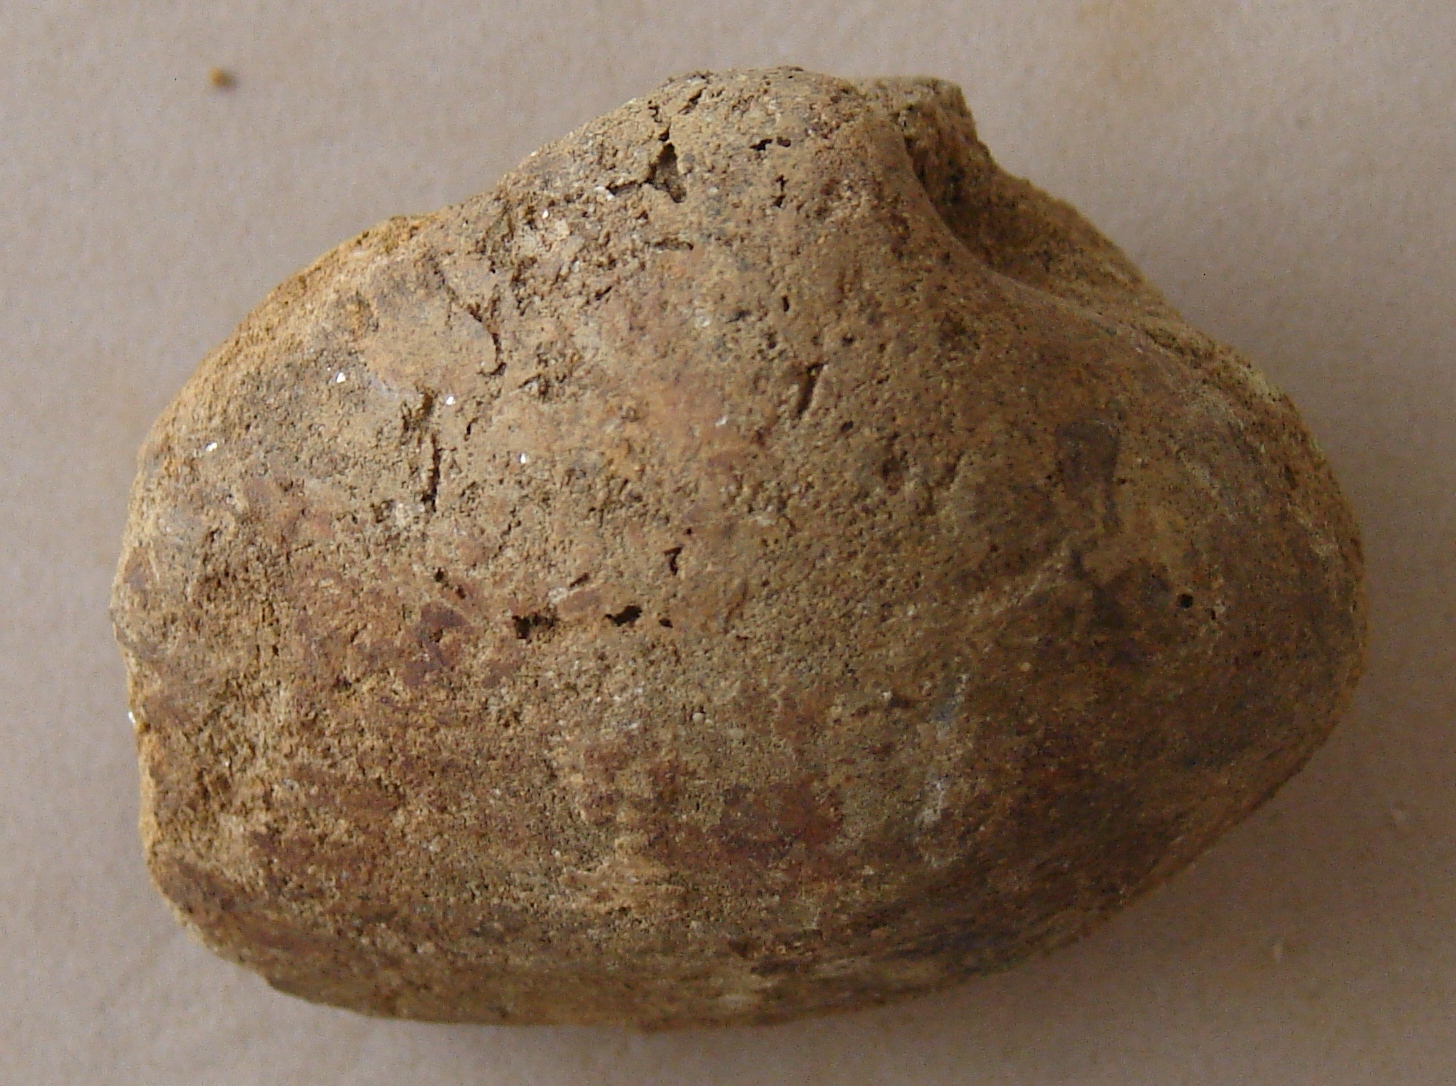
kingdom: Animalia
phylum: Mollusca
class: Bivalvia
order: Venerida
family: Mactridae
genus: Lutraria
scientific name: Lutraria gregaria
